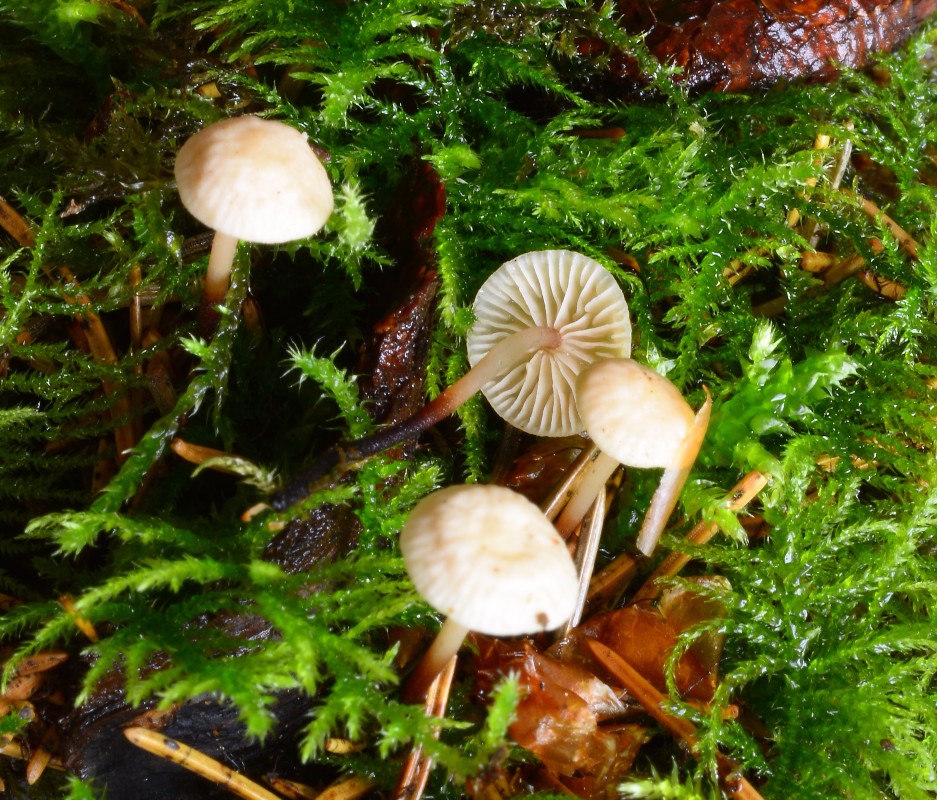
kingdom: Fungi
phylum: Basidiomycota
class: Agaricomycetes
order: Agaricales
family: Omphalotaceae
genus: Paragymnopus
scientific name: Paragymnopus perforans
